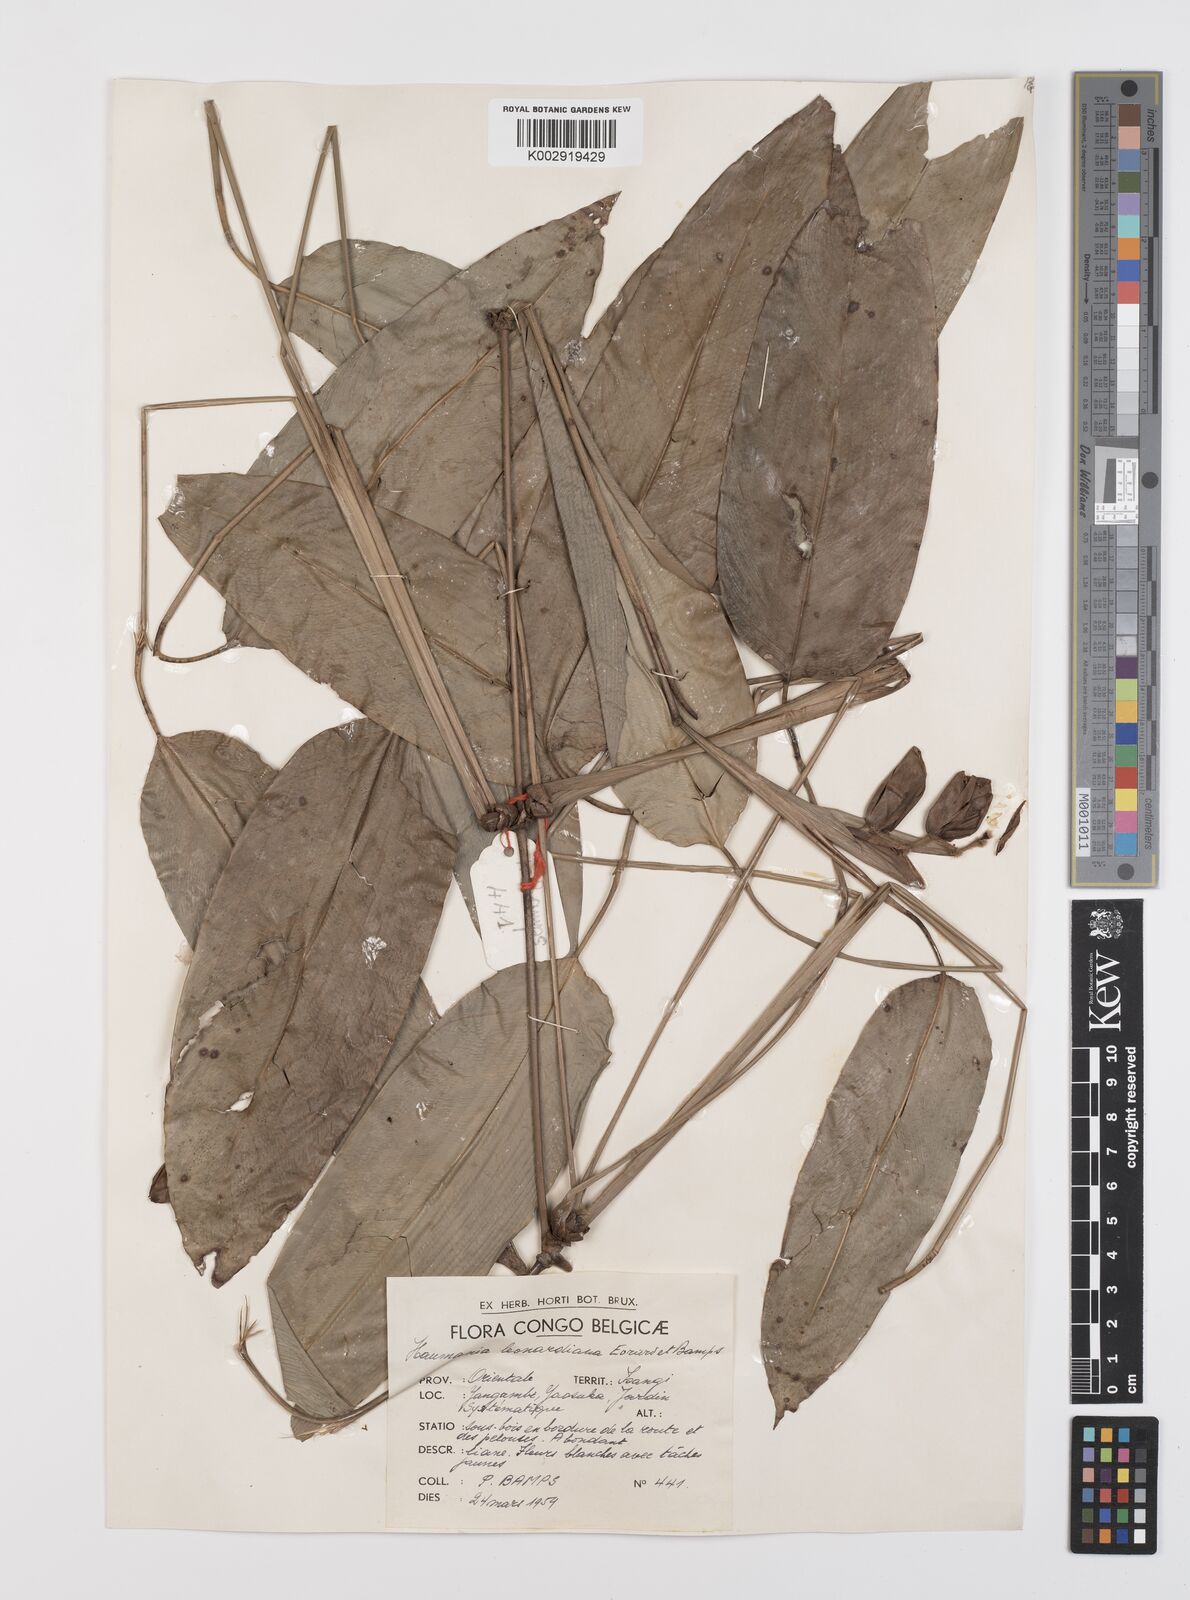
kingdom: Plantae
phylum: Tracheophyta
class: Liliopsida
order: Zingiberales
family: Marantaceae
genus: Haumania
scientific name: Haumania leonardiana
